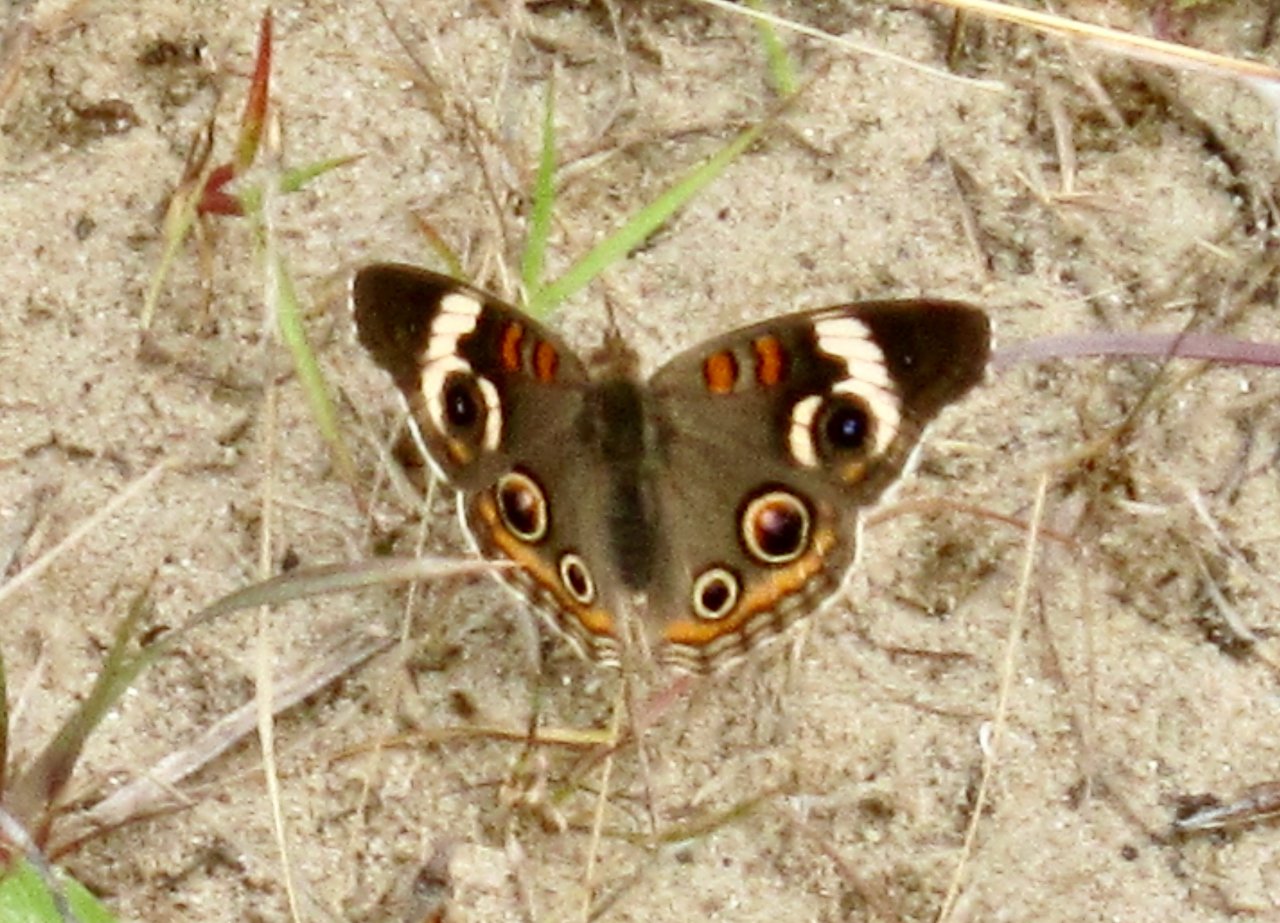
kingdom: Animalia
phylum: Arthropoda
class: Insecta
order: Lepidoptera
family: Nymphalidae
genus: Junonia
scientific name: Junonia coenia
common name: Common Buckeye
